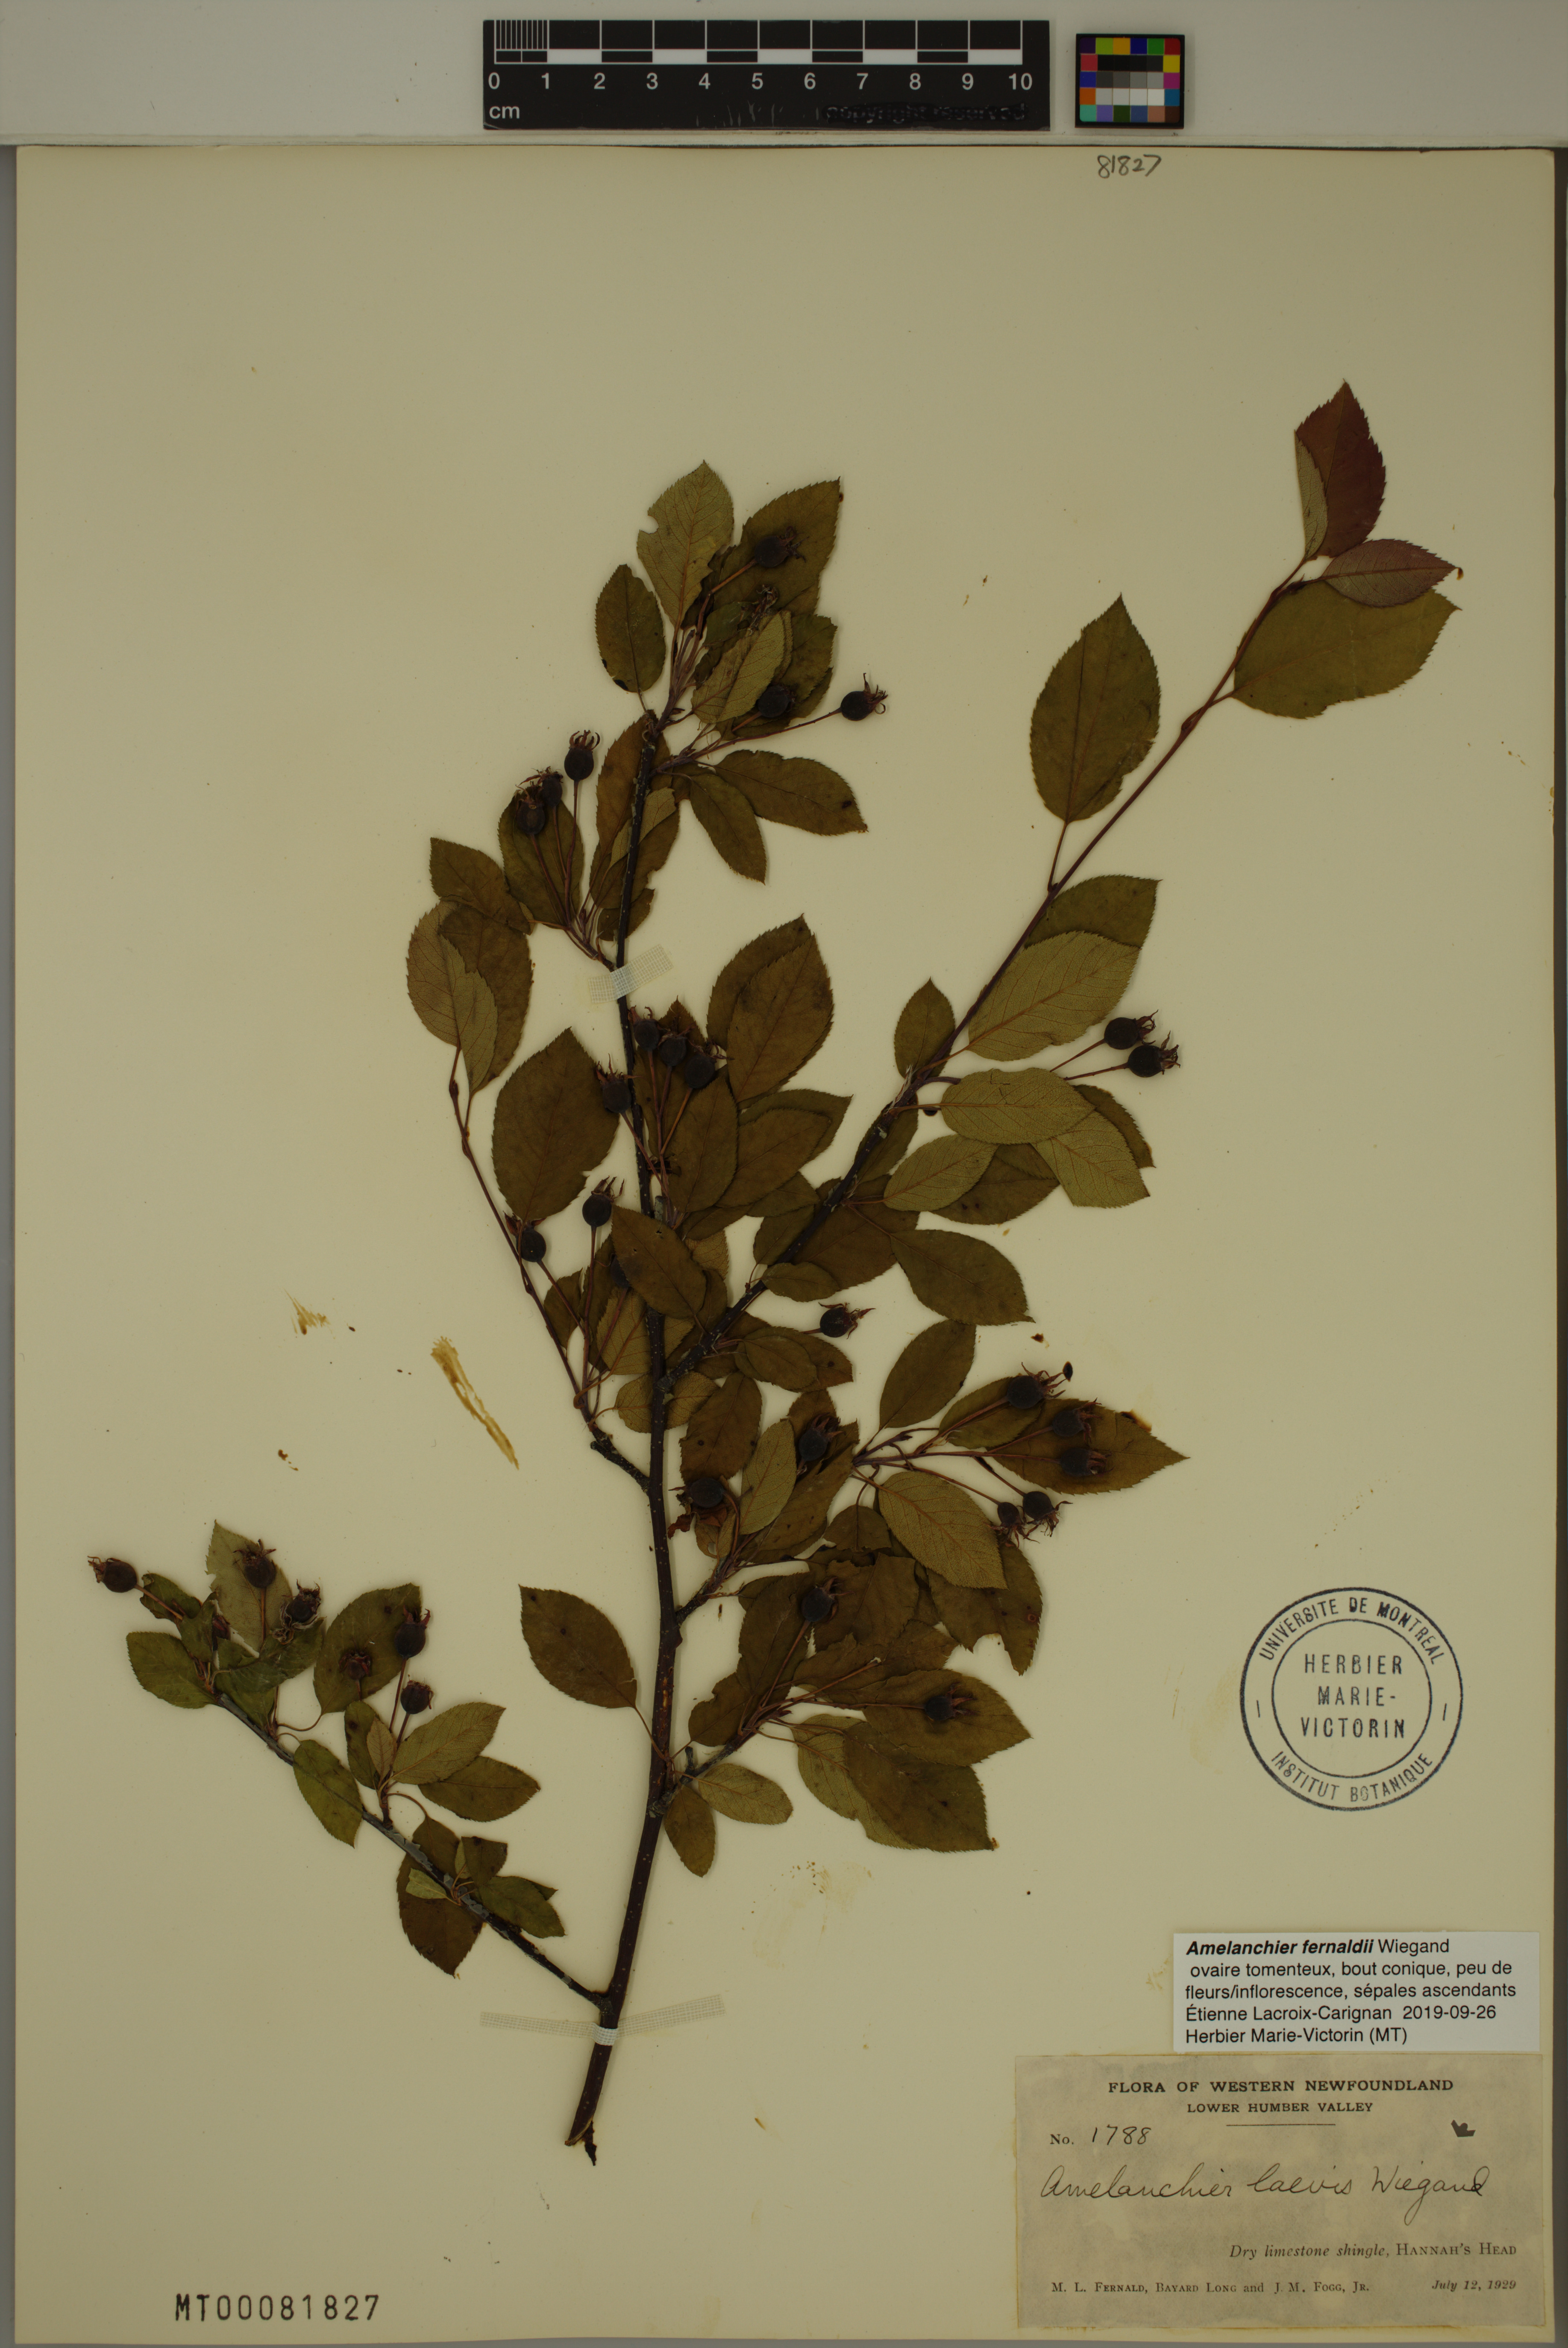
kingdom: Plantae
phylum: Tracheophyta
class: Magnoliopsida
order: Rosales
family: Rosaceae
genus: Amelanchier
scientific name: Amelanchier canadensis
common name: Thicket serviceberry
